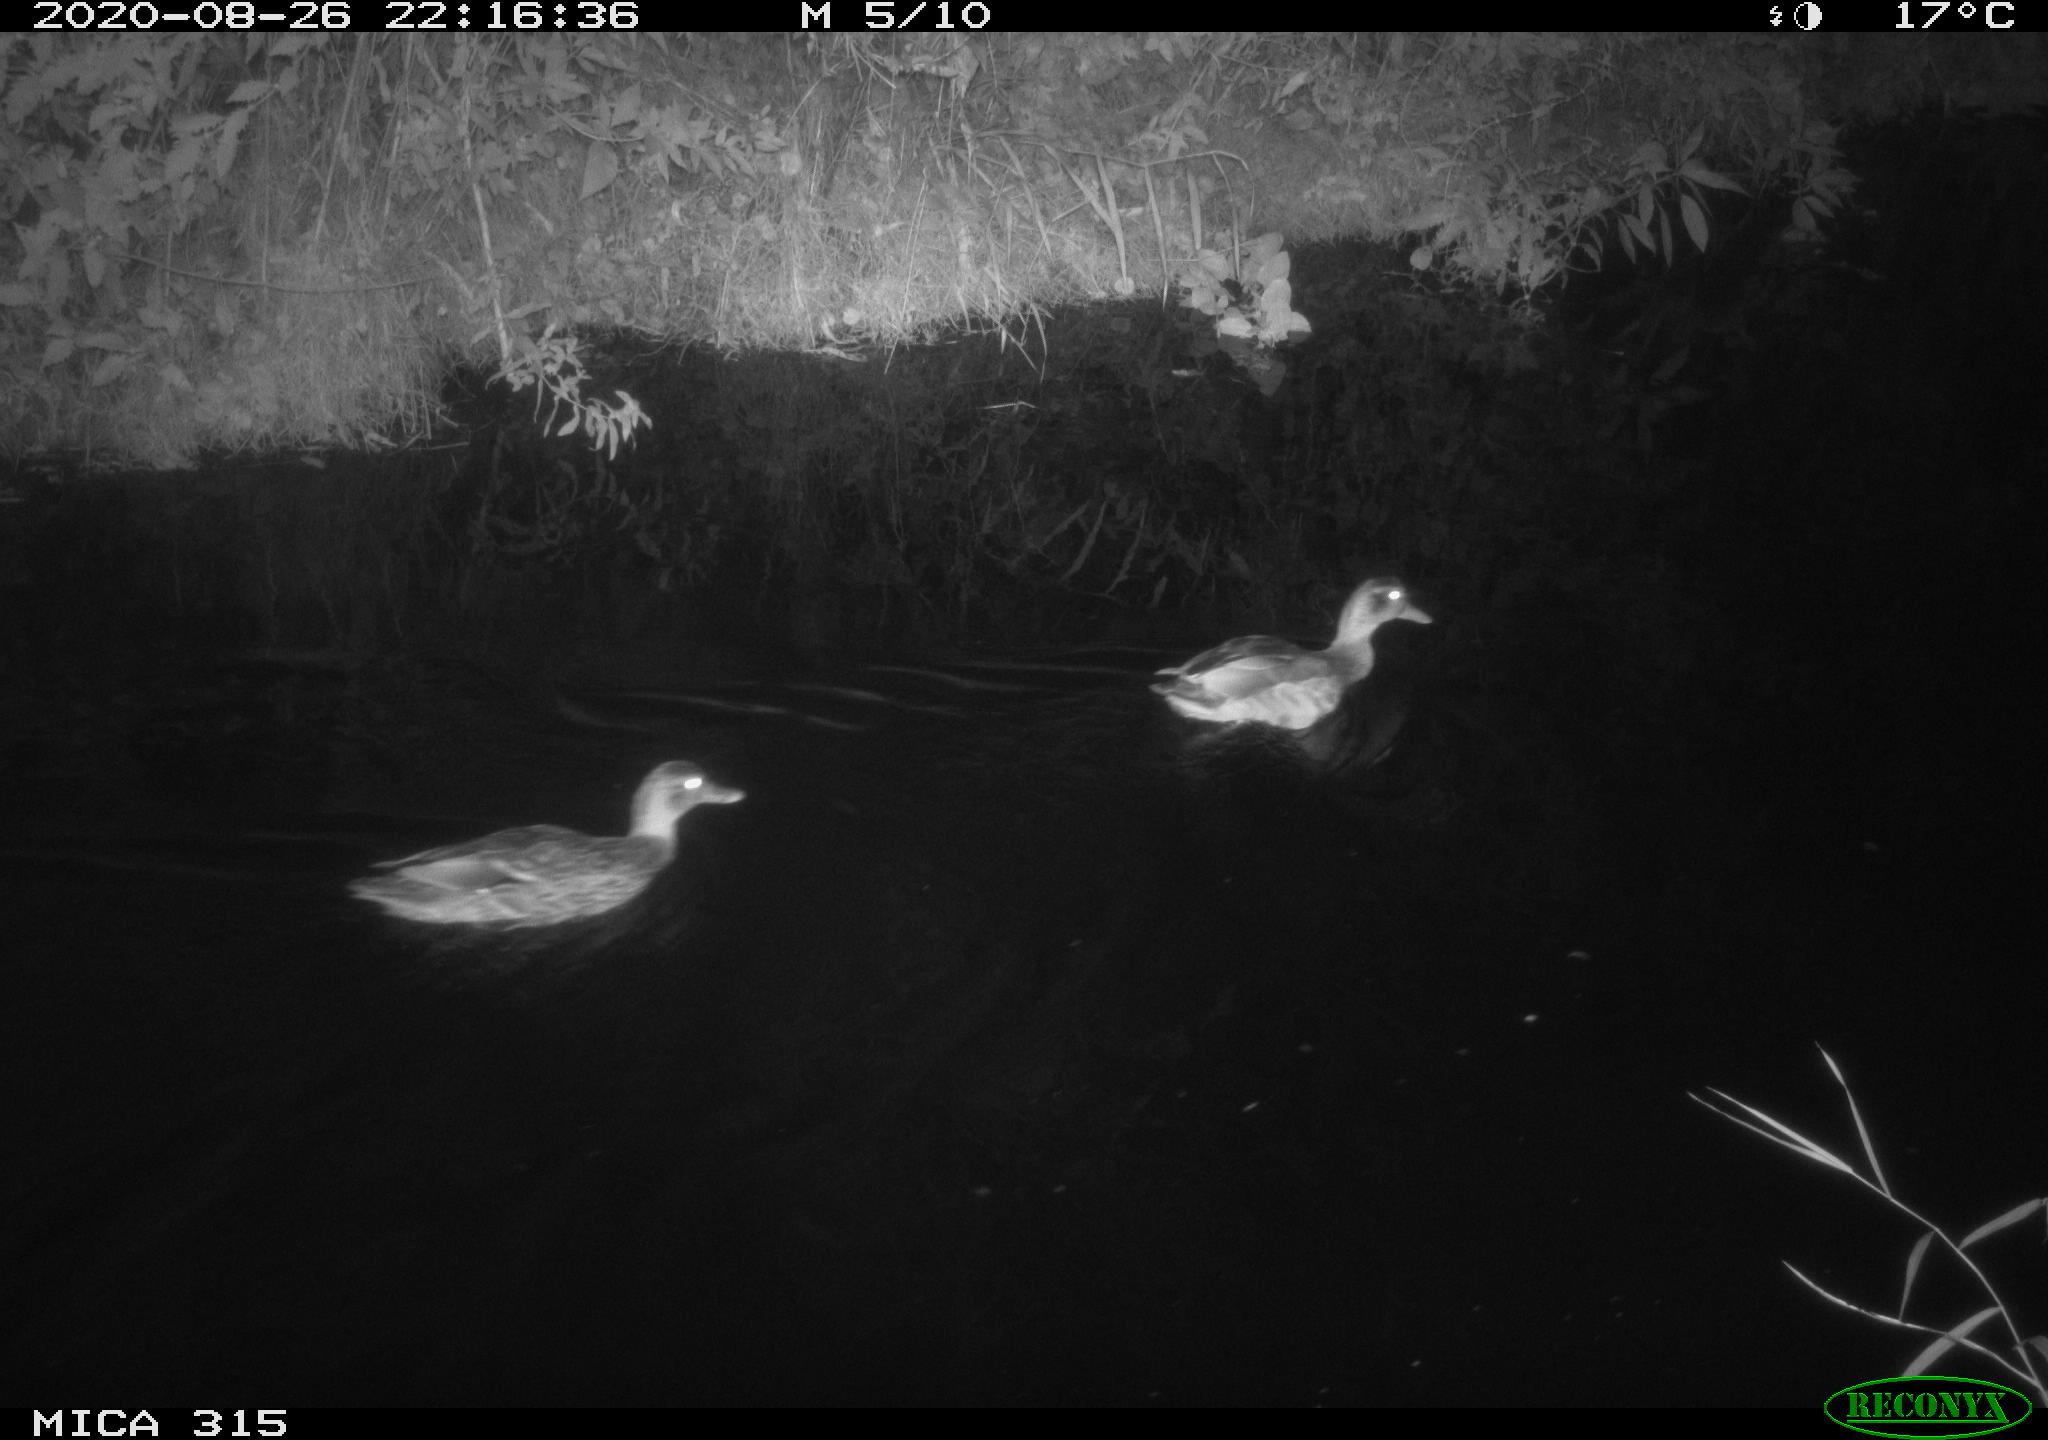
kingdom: Animalia
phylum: Chordata
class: Aves
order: Anseriformes
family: Anatidae
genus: Anas
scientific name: Anas platyrhynchos
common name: Mallard
